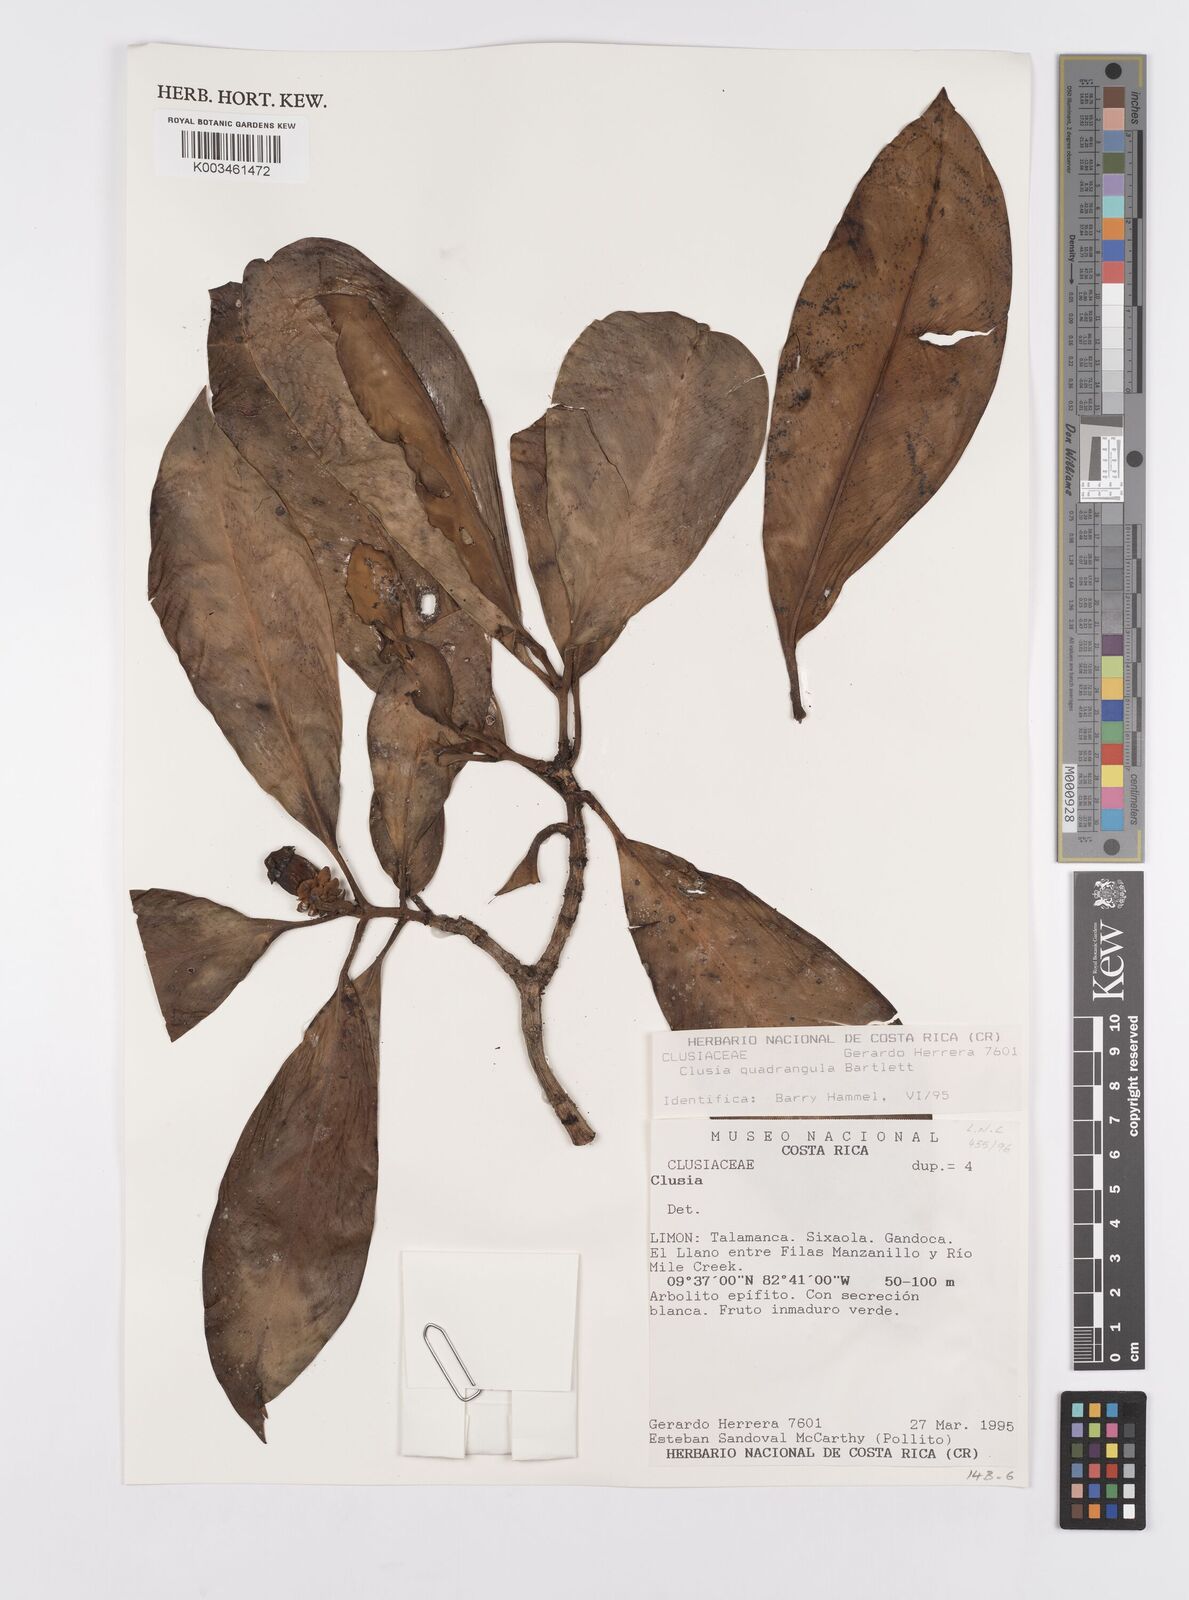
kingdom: Plantae
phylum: Tracheophyta
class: Magnoliopsida
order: Malpighiales
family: Clusiaceae
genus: Clusia
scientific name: Clusia quadrangula
